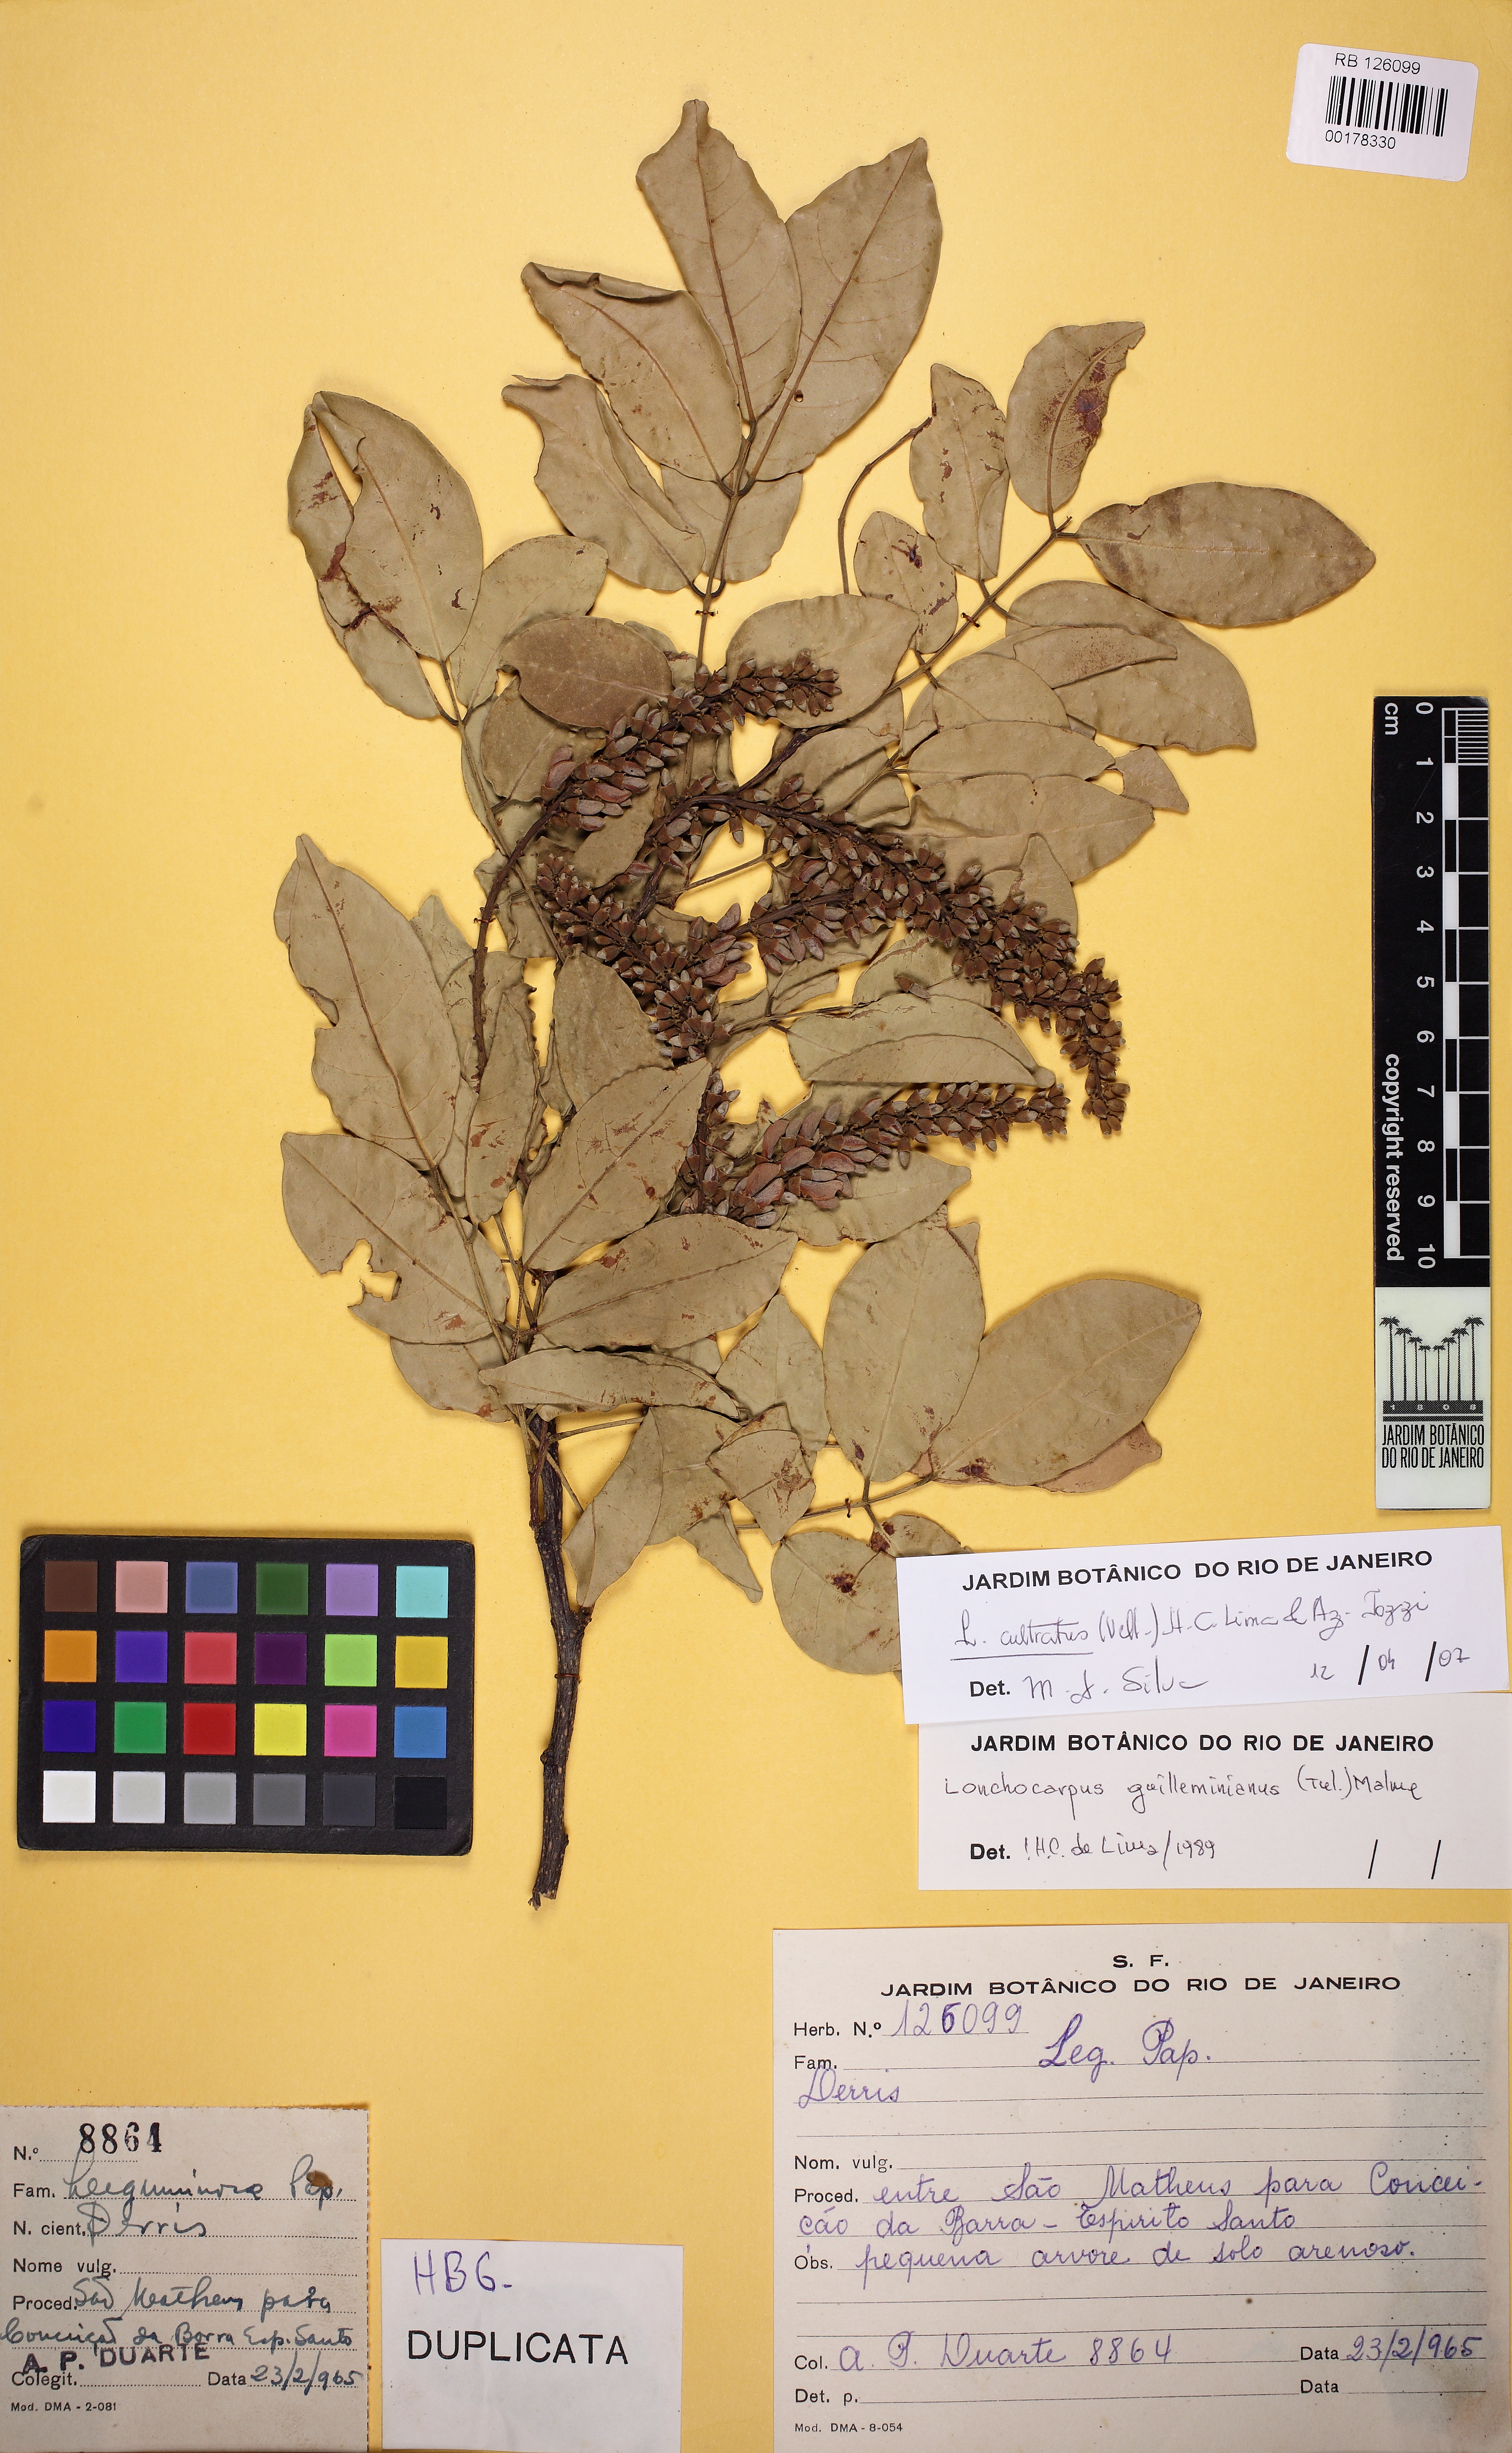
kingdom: Plantae
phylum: Tracheophyta
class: Magnoliopsida
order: Fabales
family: Fabaceae
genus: Lonchocarpus
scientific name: Lonchocarpus cultratus
